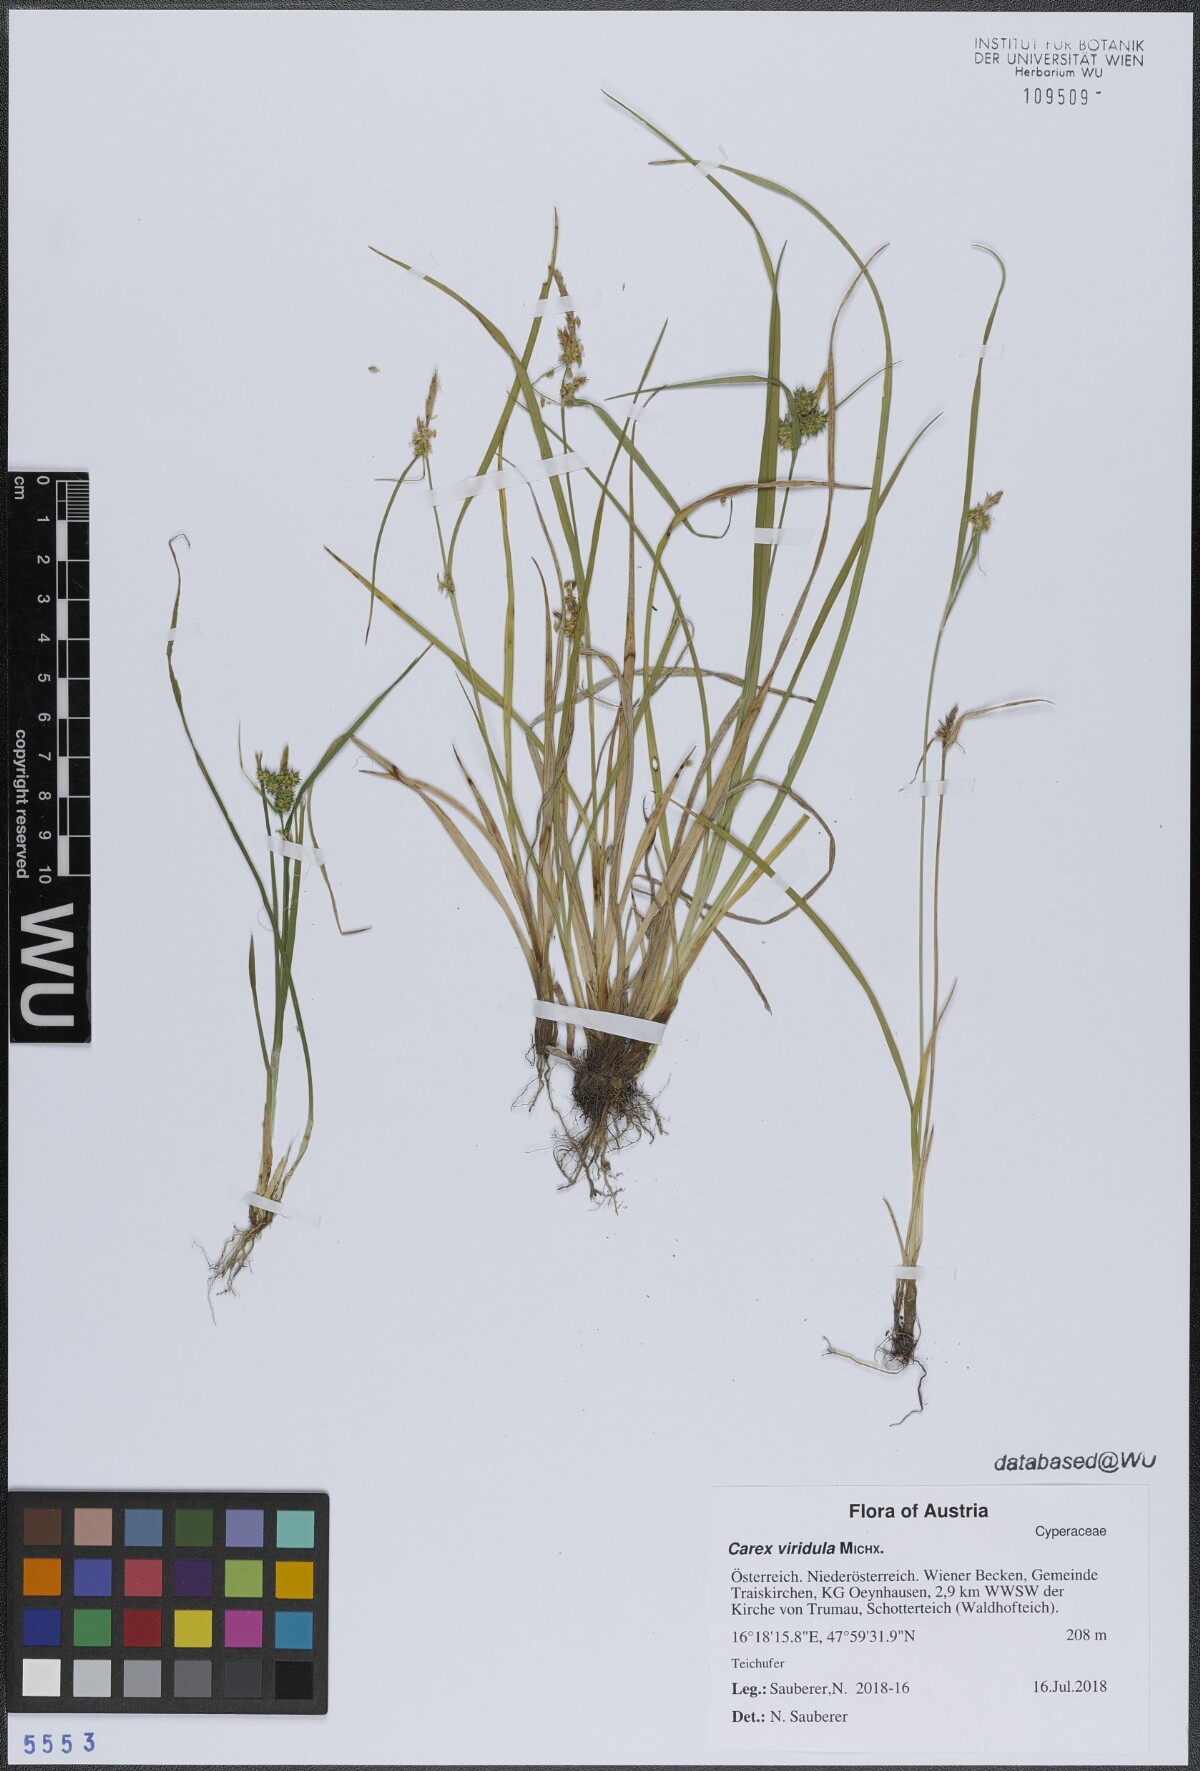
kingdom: Plantae
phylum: Tracheophyta
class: Liliopsida
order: Poales
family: Cyperaceae
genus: Carex
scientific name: Carex oederi
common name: Common & small-fruited yellow-sedge
